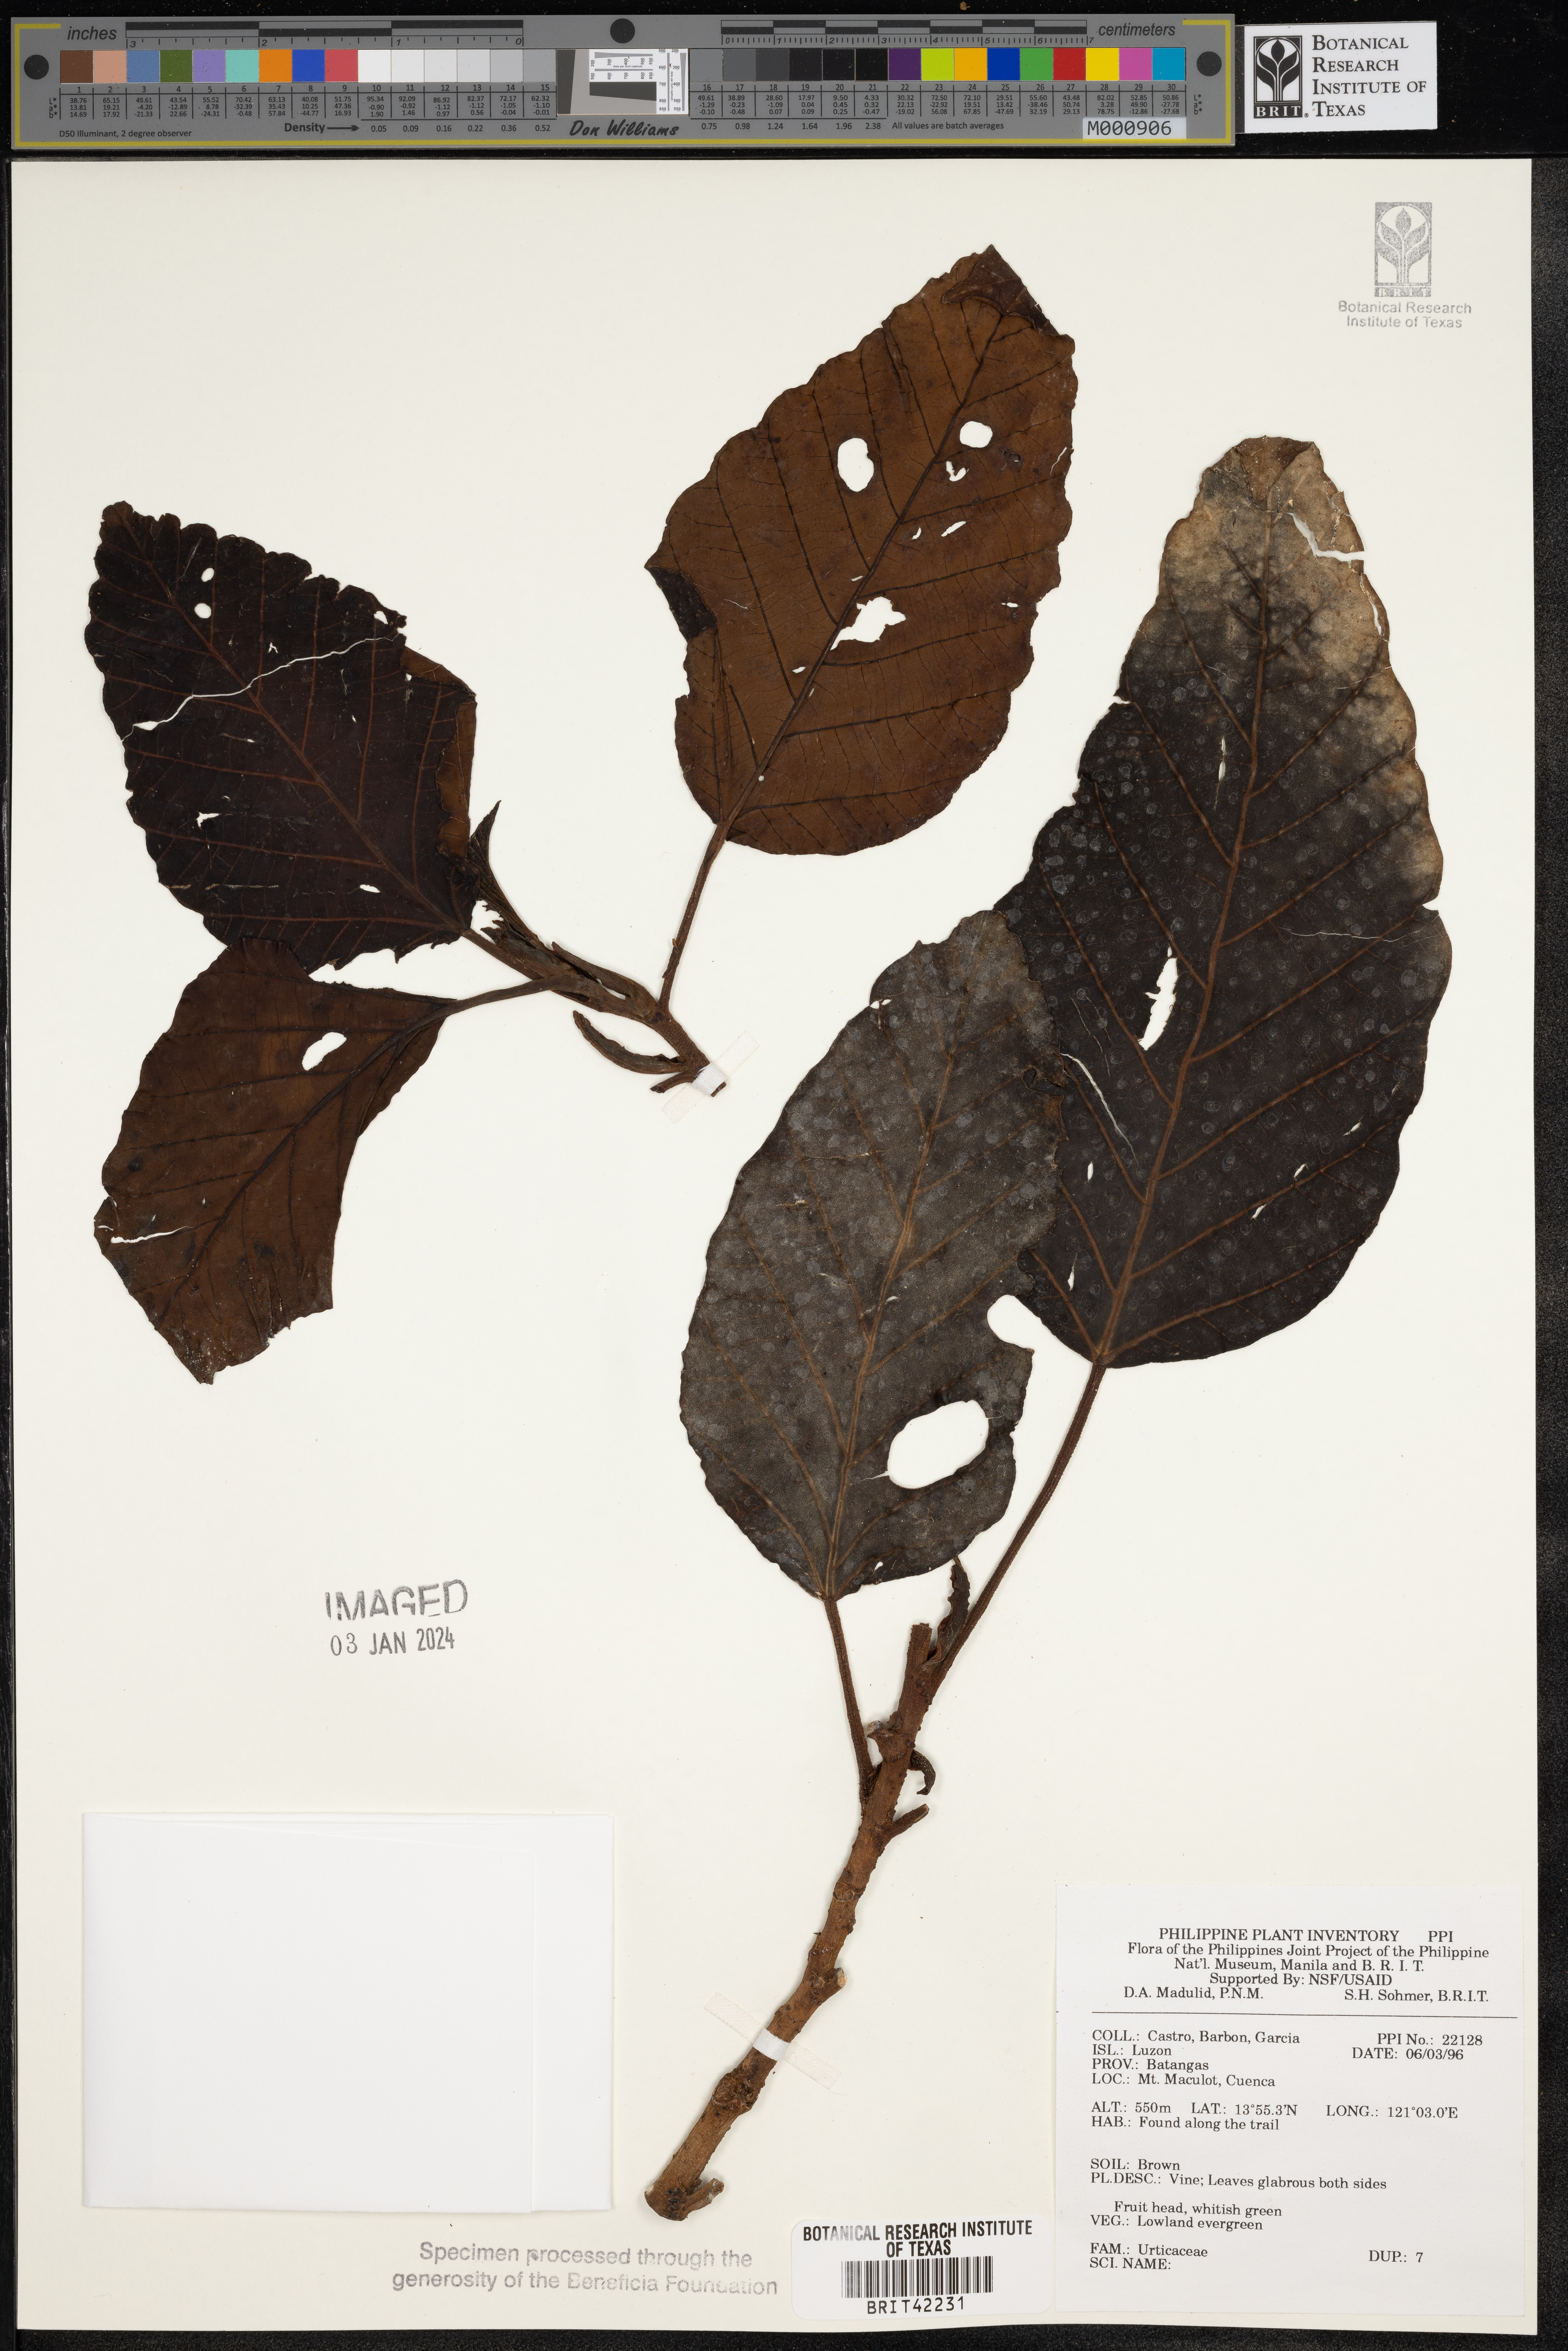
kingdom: Plantae
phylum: Tracheophyta
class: Magnoliopsida
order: Rosales
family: Urticaceae
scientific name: Urticaceae
